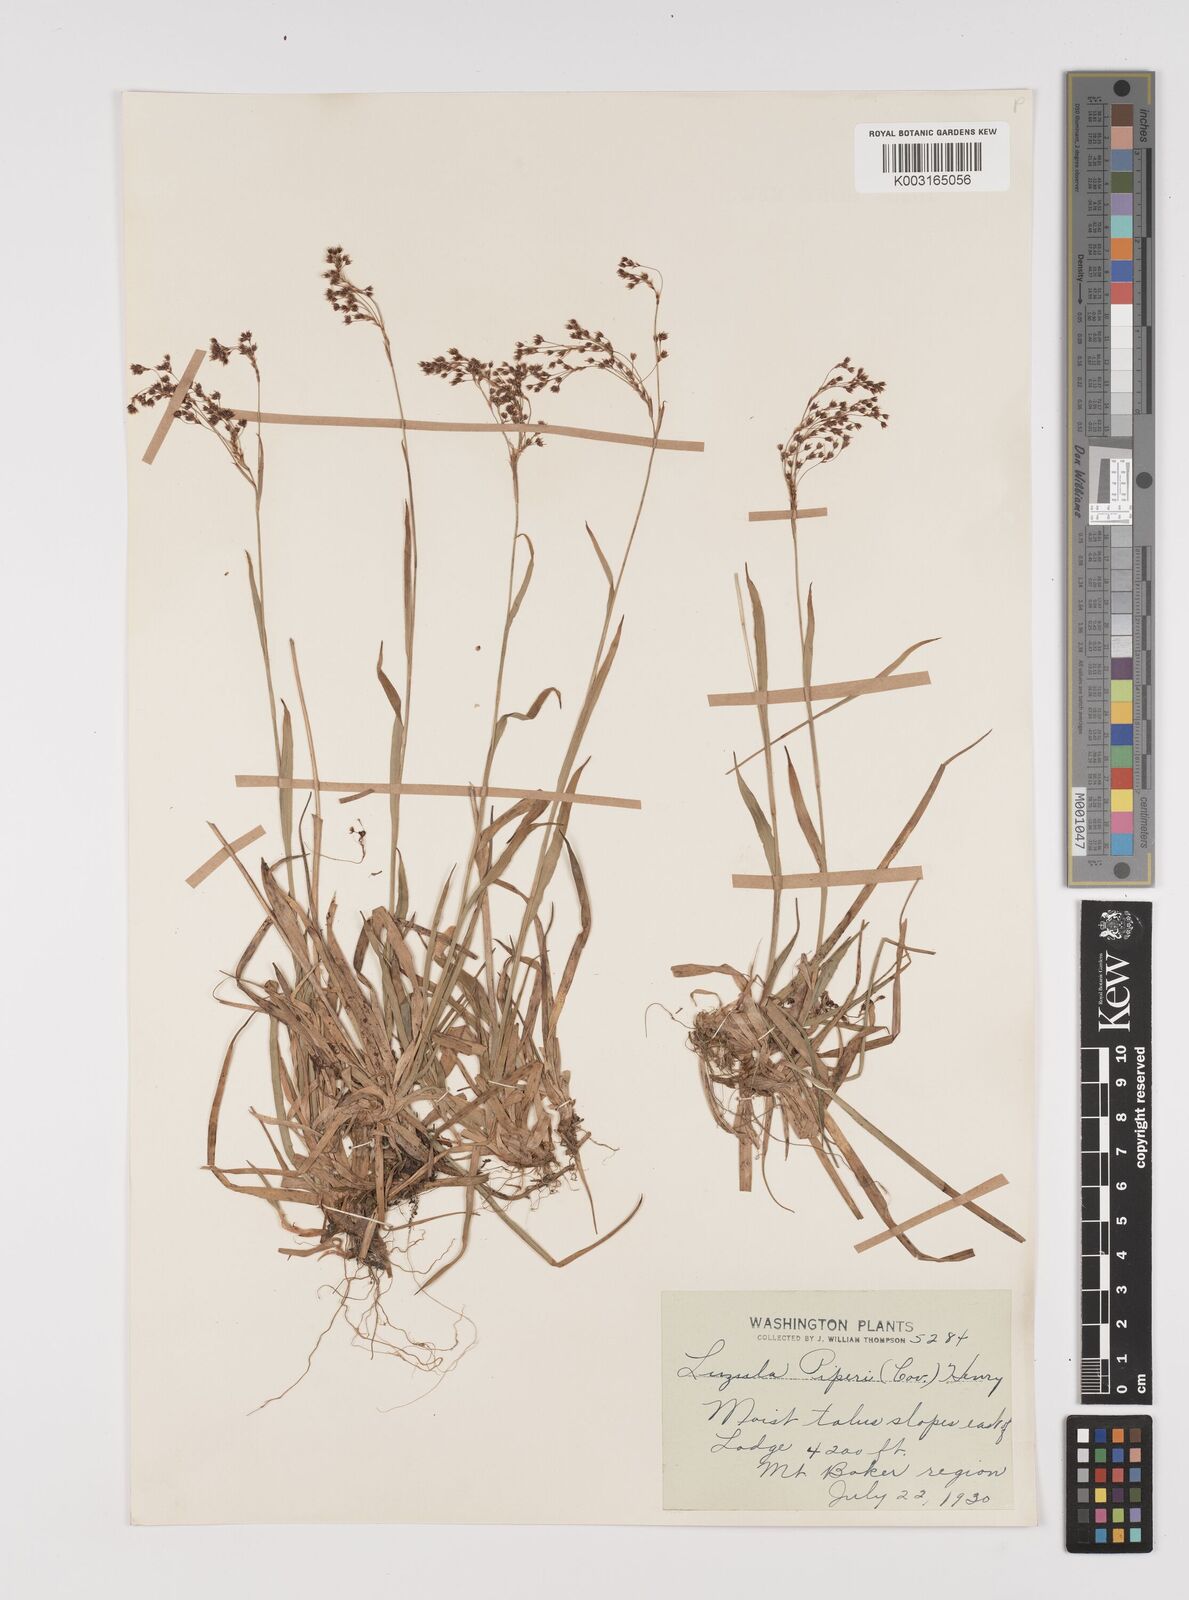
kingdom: Plantae
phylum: Tracheophyta
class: Liliopsida
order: Poales
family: Juncaceae
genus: Luzula
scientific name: Luzula piperi
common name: Piper's wood-rush
